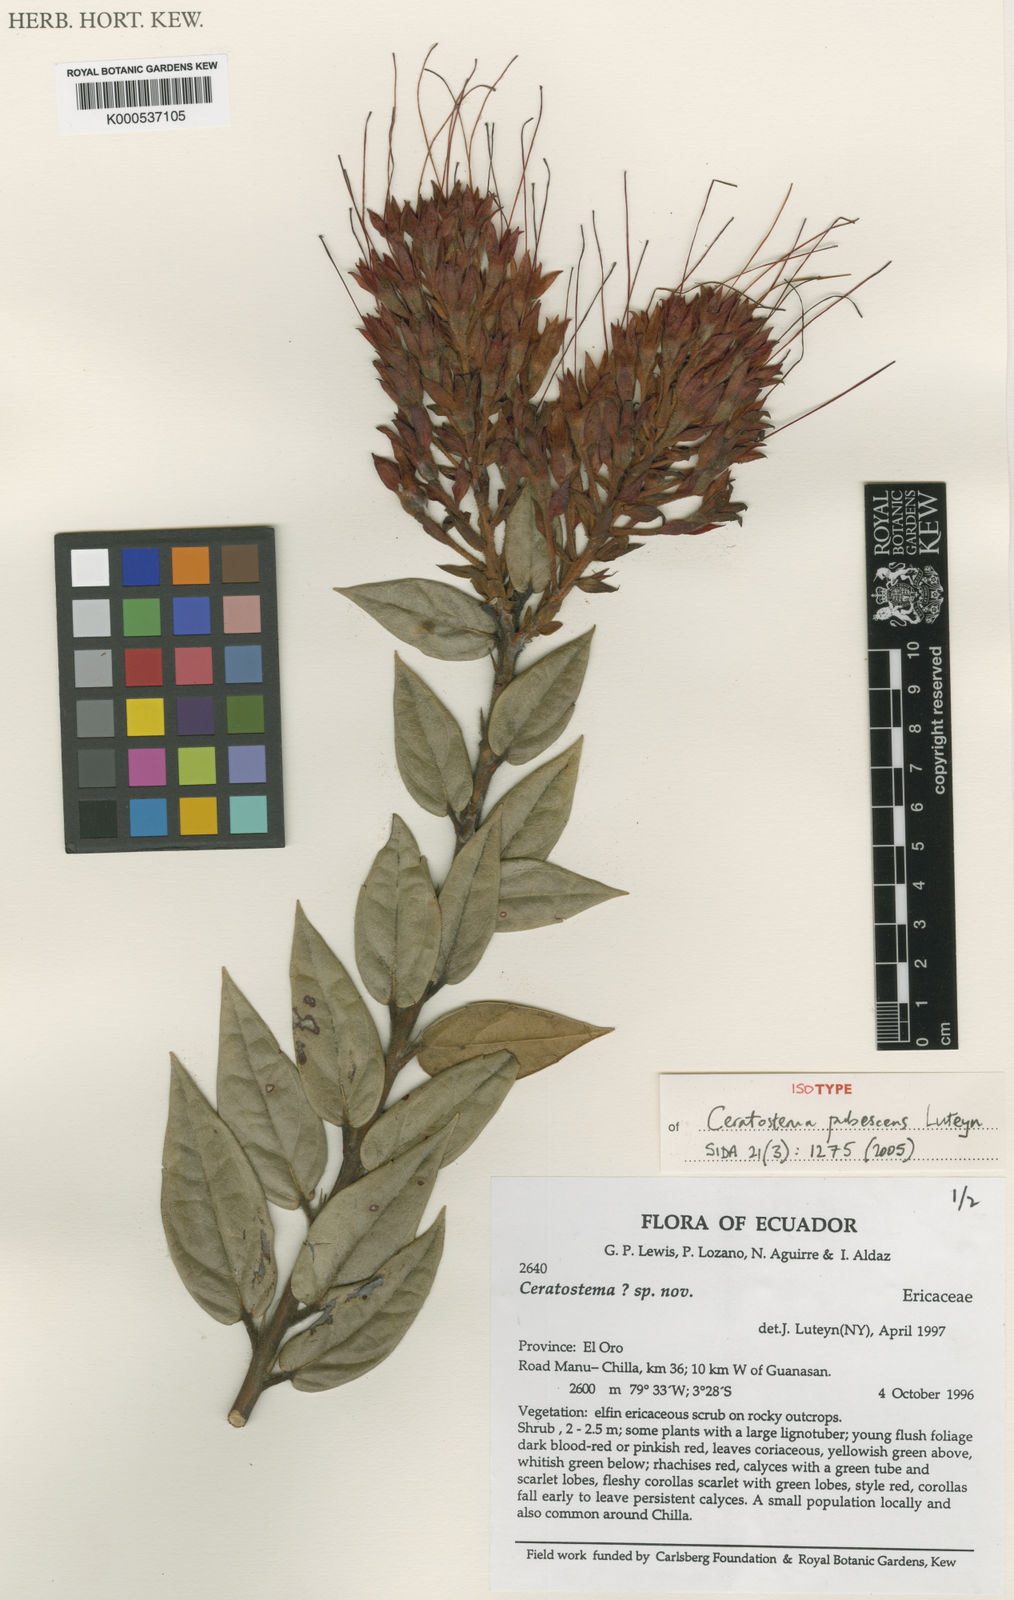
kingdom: Plantae
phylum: Tracheophyta
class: Magnoliopsida
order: Ericales
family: Ericaceae
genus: Ceratostema
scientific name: Ceratostema pubescens
